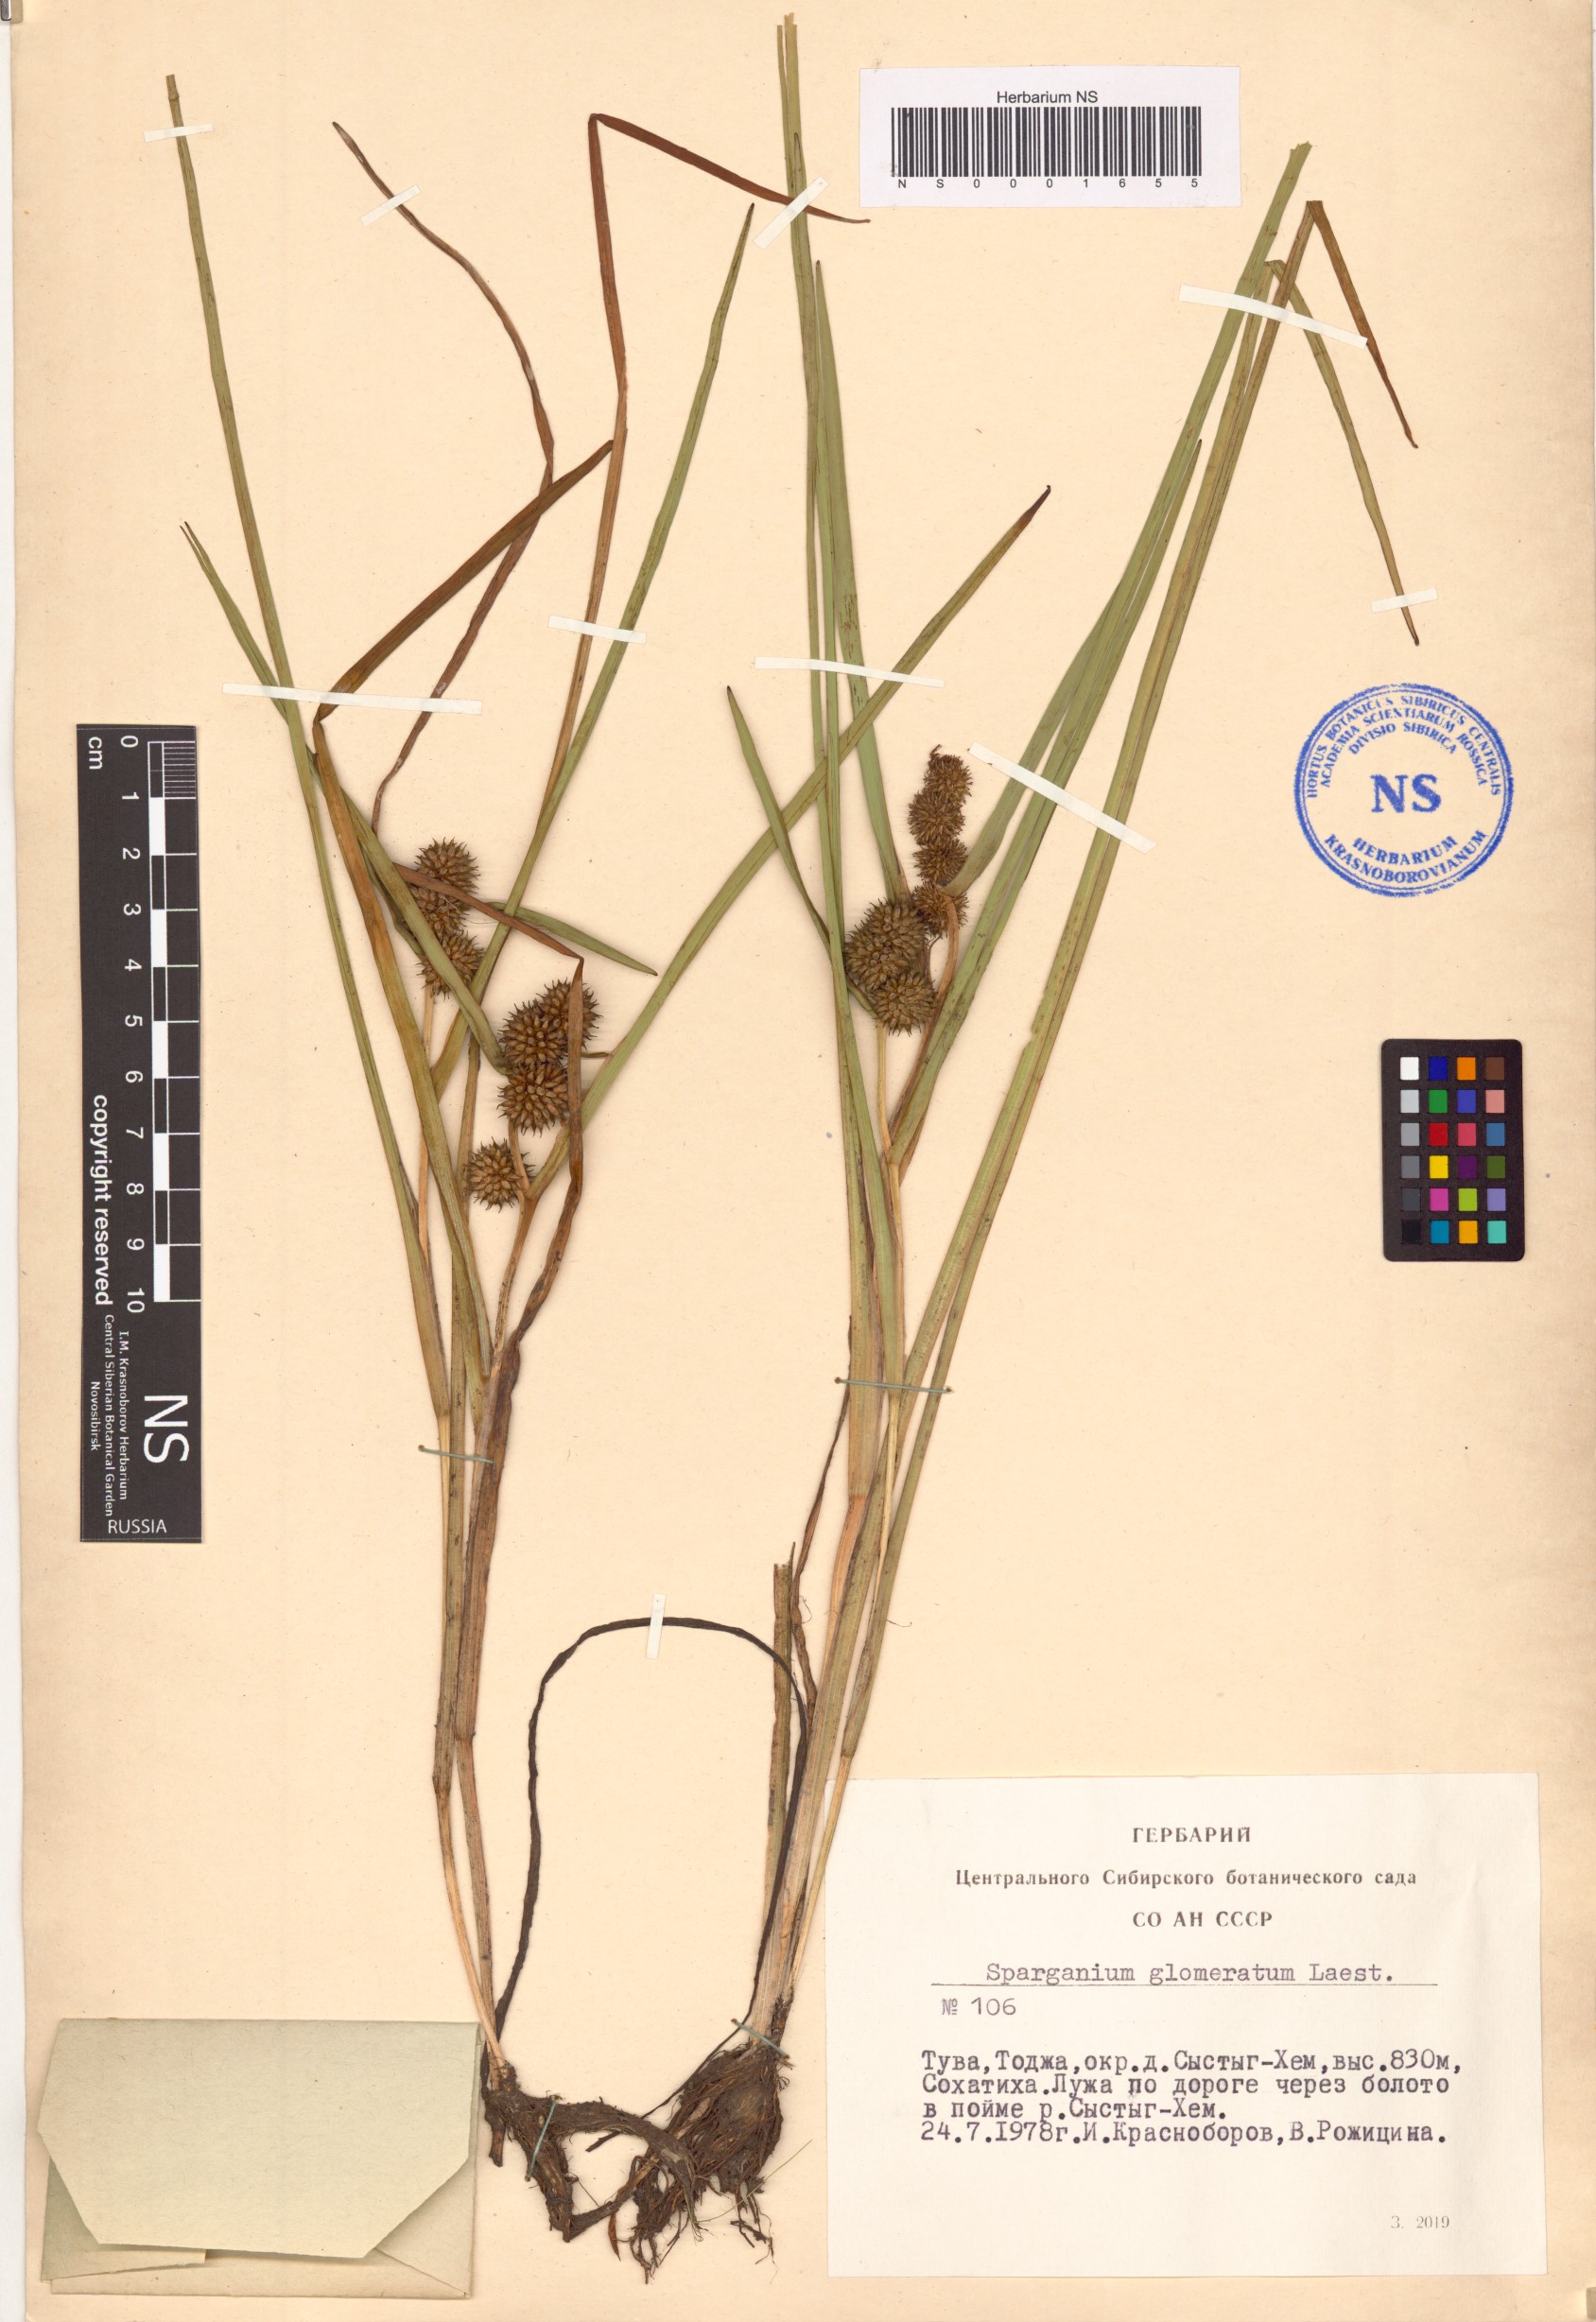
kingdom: Plantae
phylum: Tracheophyta
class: Liliopsida
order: Poales
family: Typhaceae
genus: Sparganium
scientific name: Sparganium glomeratum
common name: Clustered burreed
